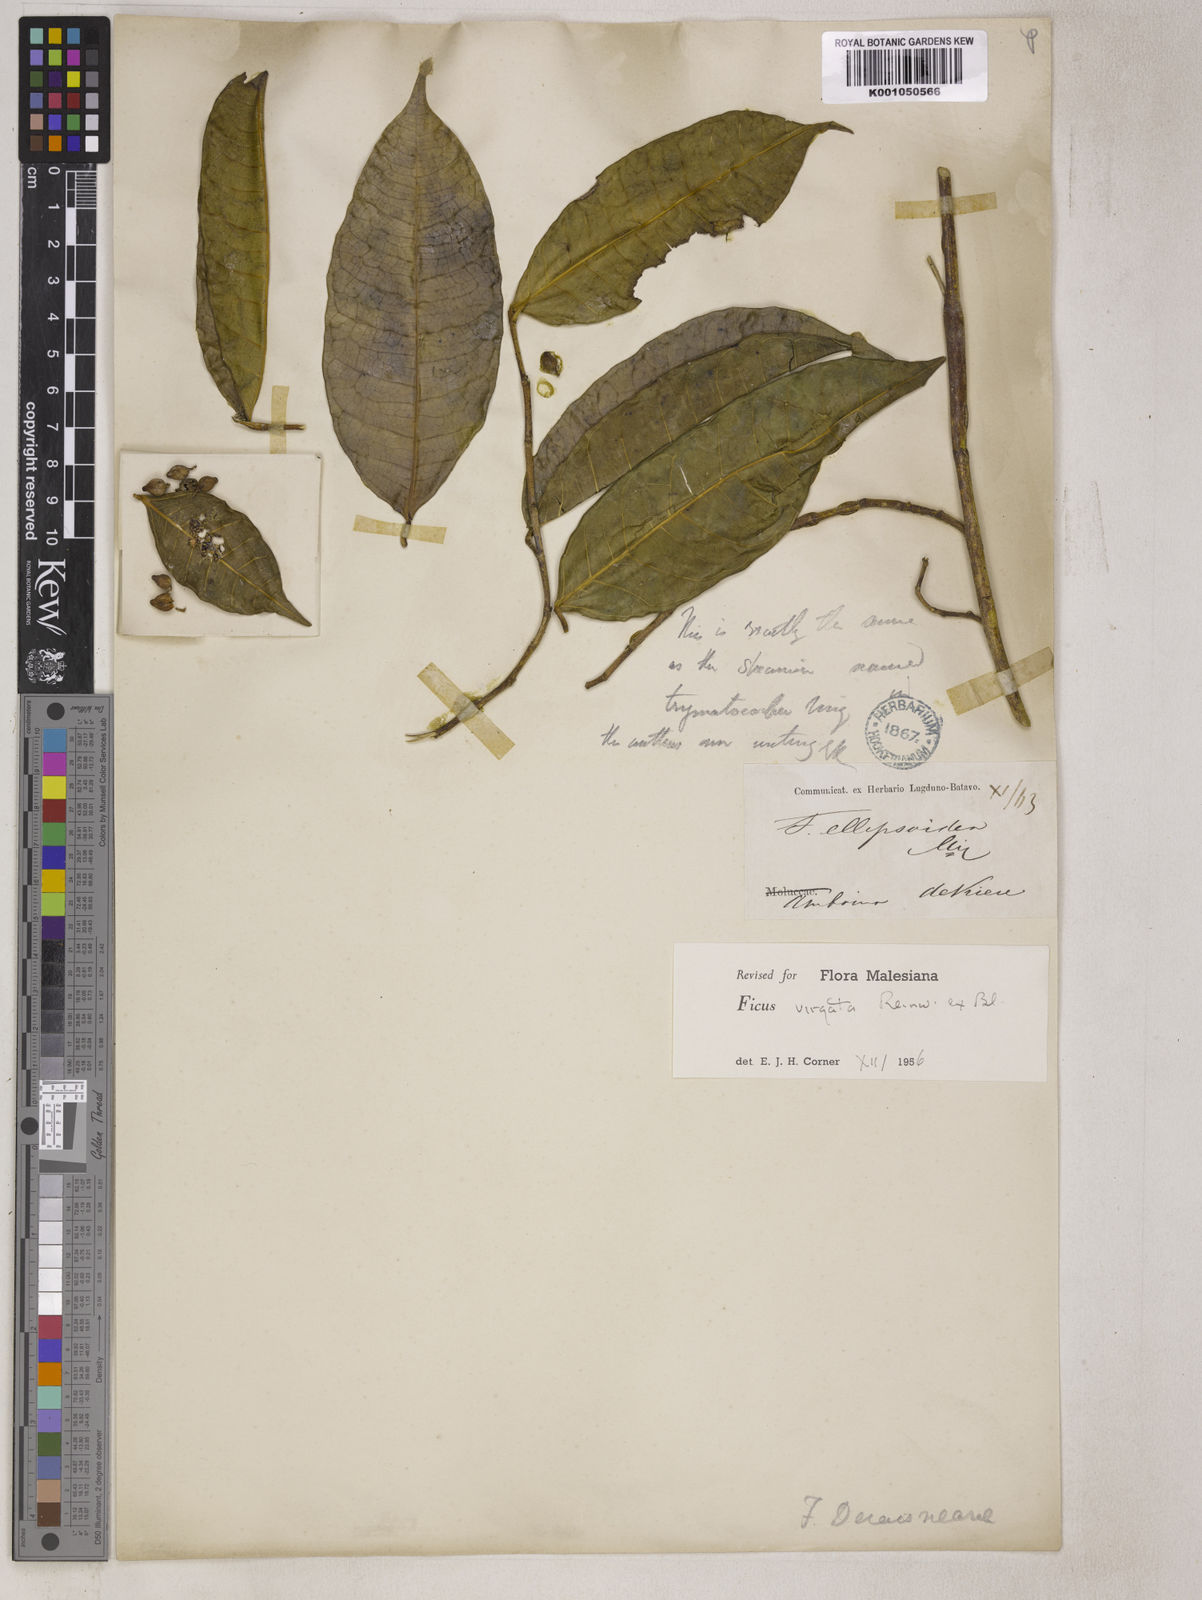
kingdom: Plantae
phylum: Tracheophyta
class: Magnoliopsida
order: Rosales
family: Moraceae
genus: Ficus
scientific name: Ficus virgata
